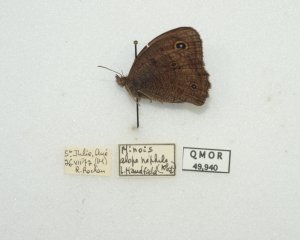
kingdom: Animalia
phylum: Arthropoda
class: Insecta
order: Lepidoptera
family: Nymphalidae
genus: Cercyonis
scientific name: Cercyonis pegala
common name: Common Wood-Nymph
